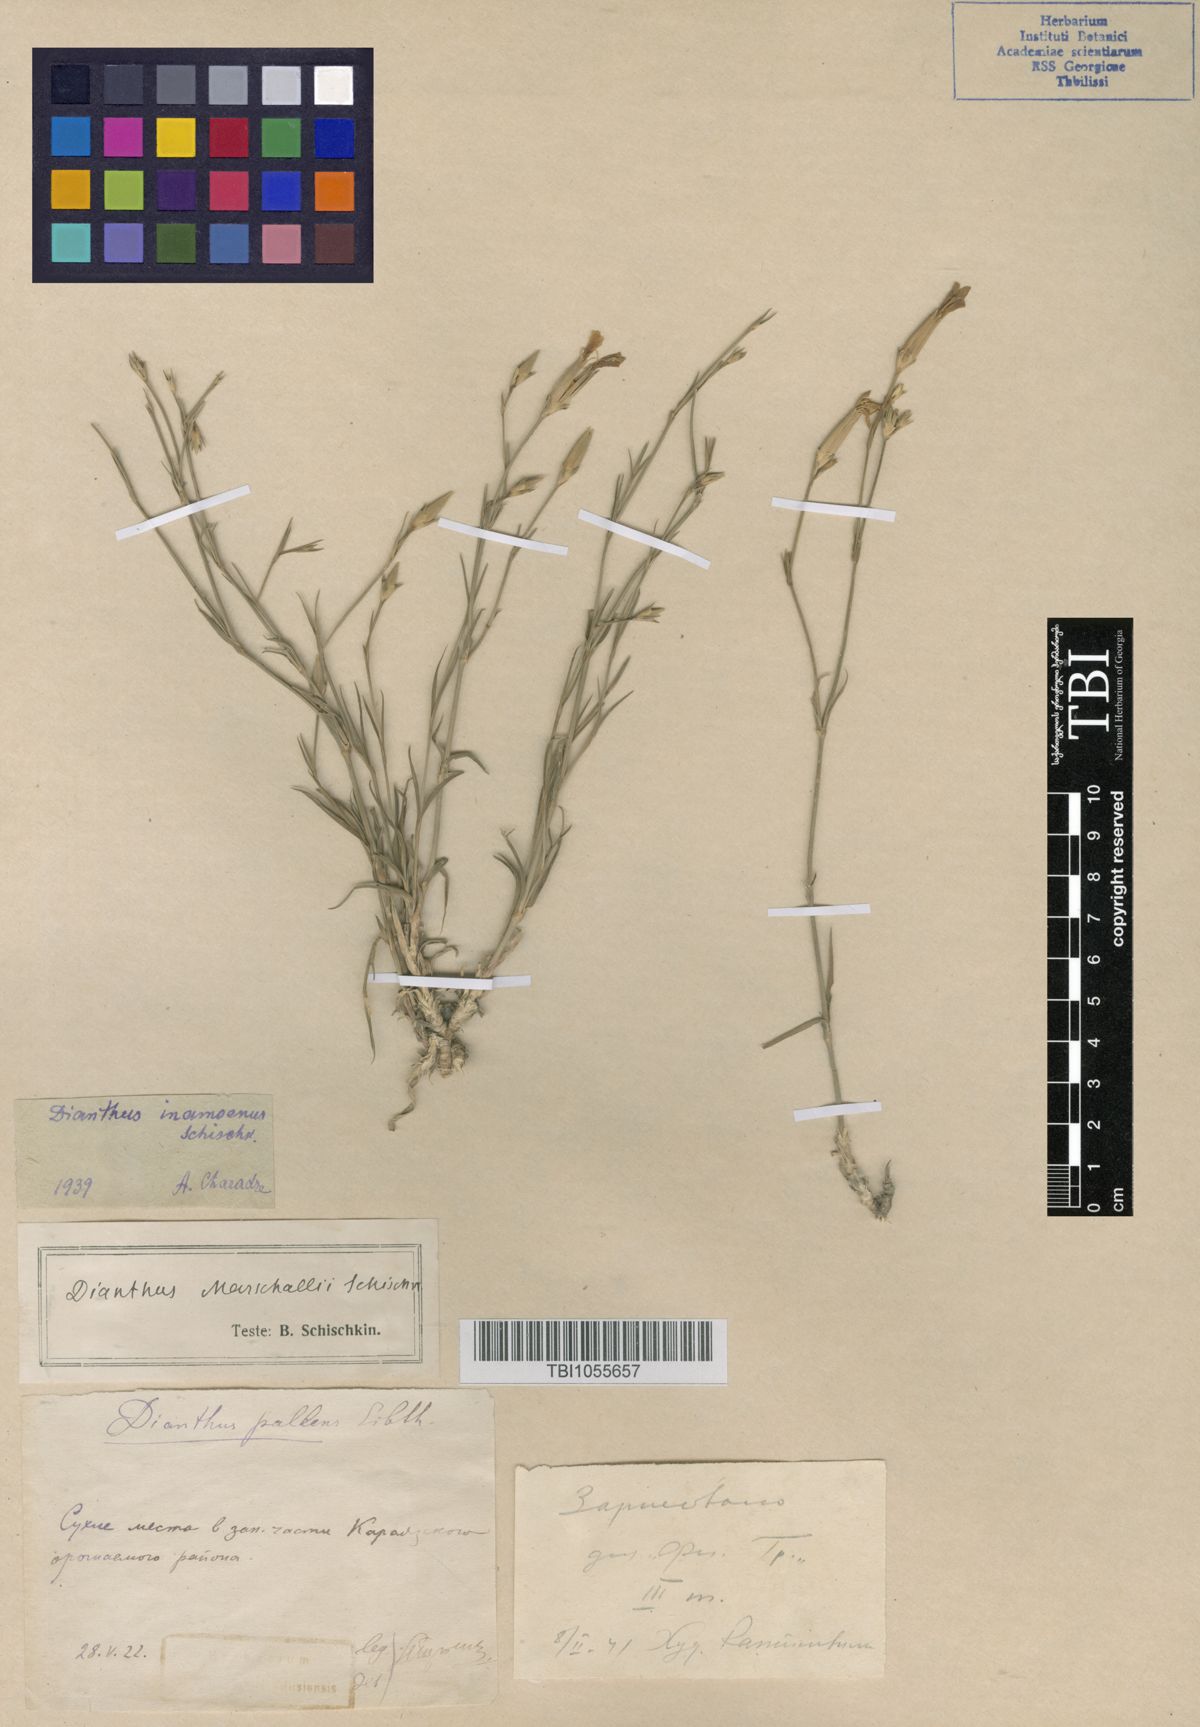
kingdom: Plantae
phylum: Tracheophyta
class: Magnoliopsida
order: Caryophyllales
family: Caryophyllaceae
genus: Dianthus
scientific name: Dianthus inamoenus
